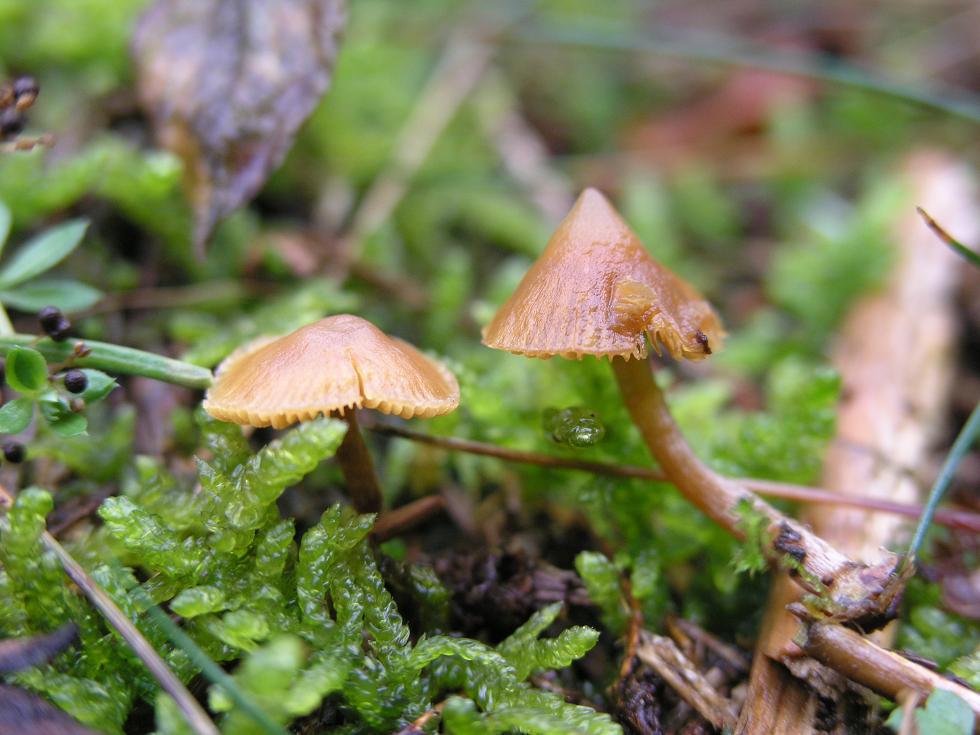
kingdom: Fungi
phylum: Basidiomycota
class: Agaricomycetes
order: Agaricales
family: Hymenogastraceae
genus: Galerina
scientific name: Galerina cinctula
